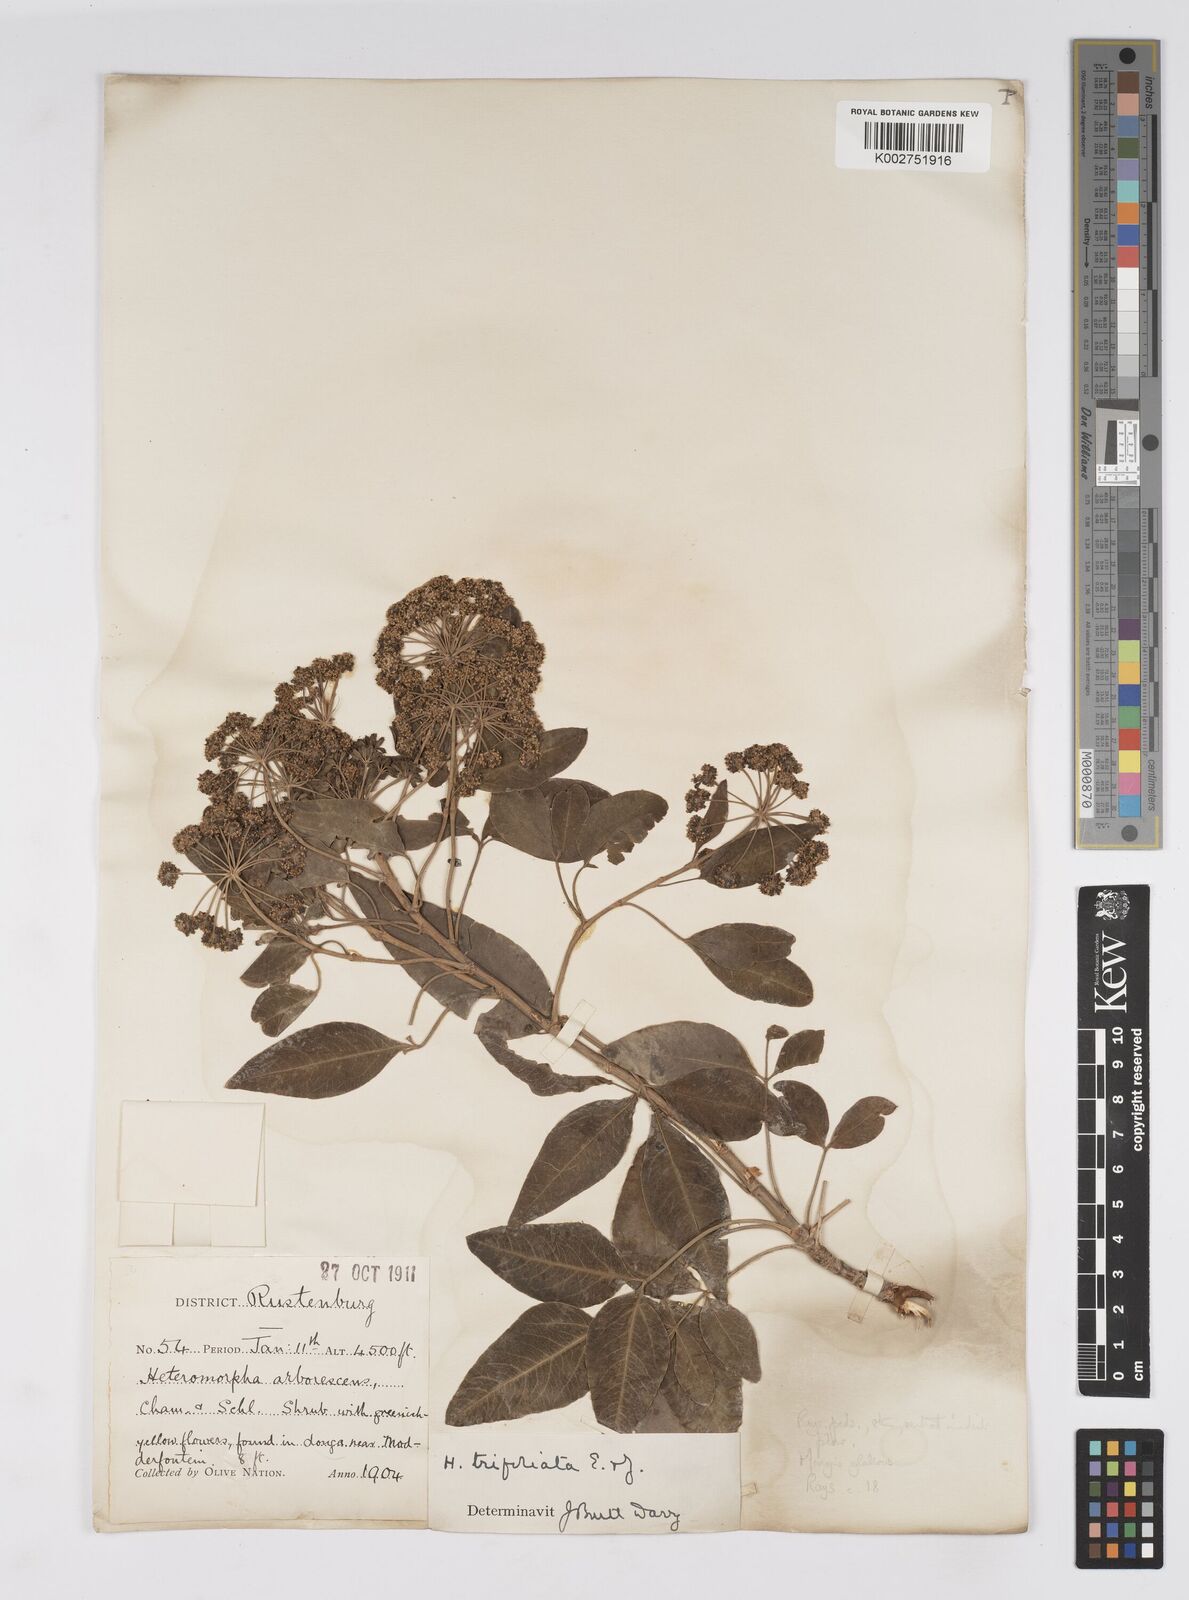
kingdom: Plantae
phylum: Tracheophyta
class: Magnoliopsida
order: Apiales
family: Apiaceae
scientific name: Apiaceae
